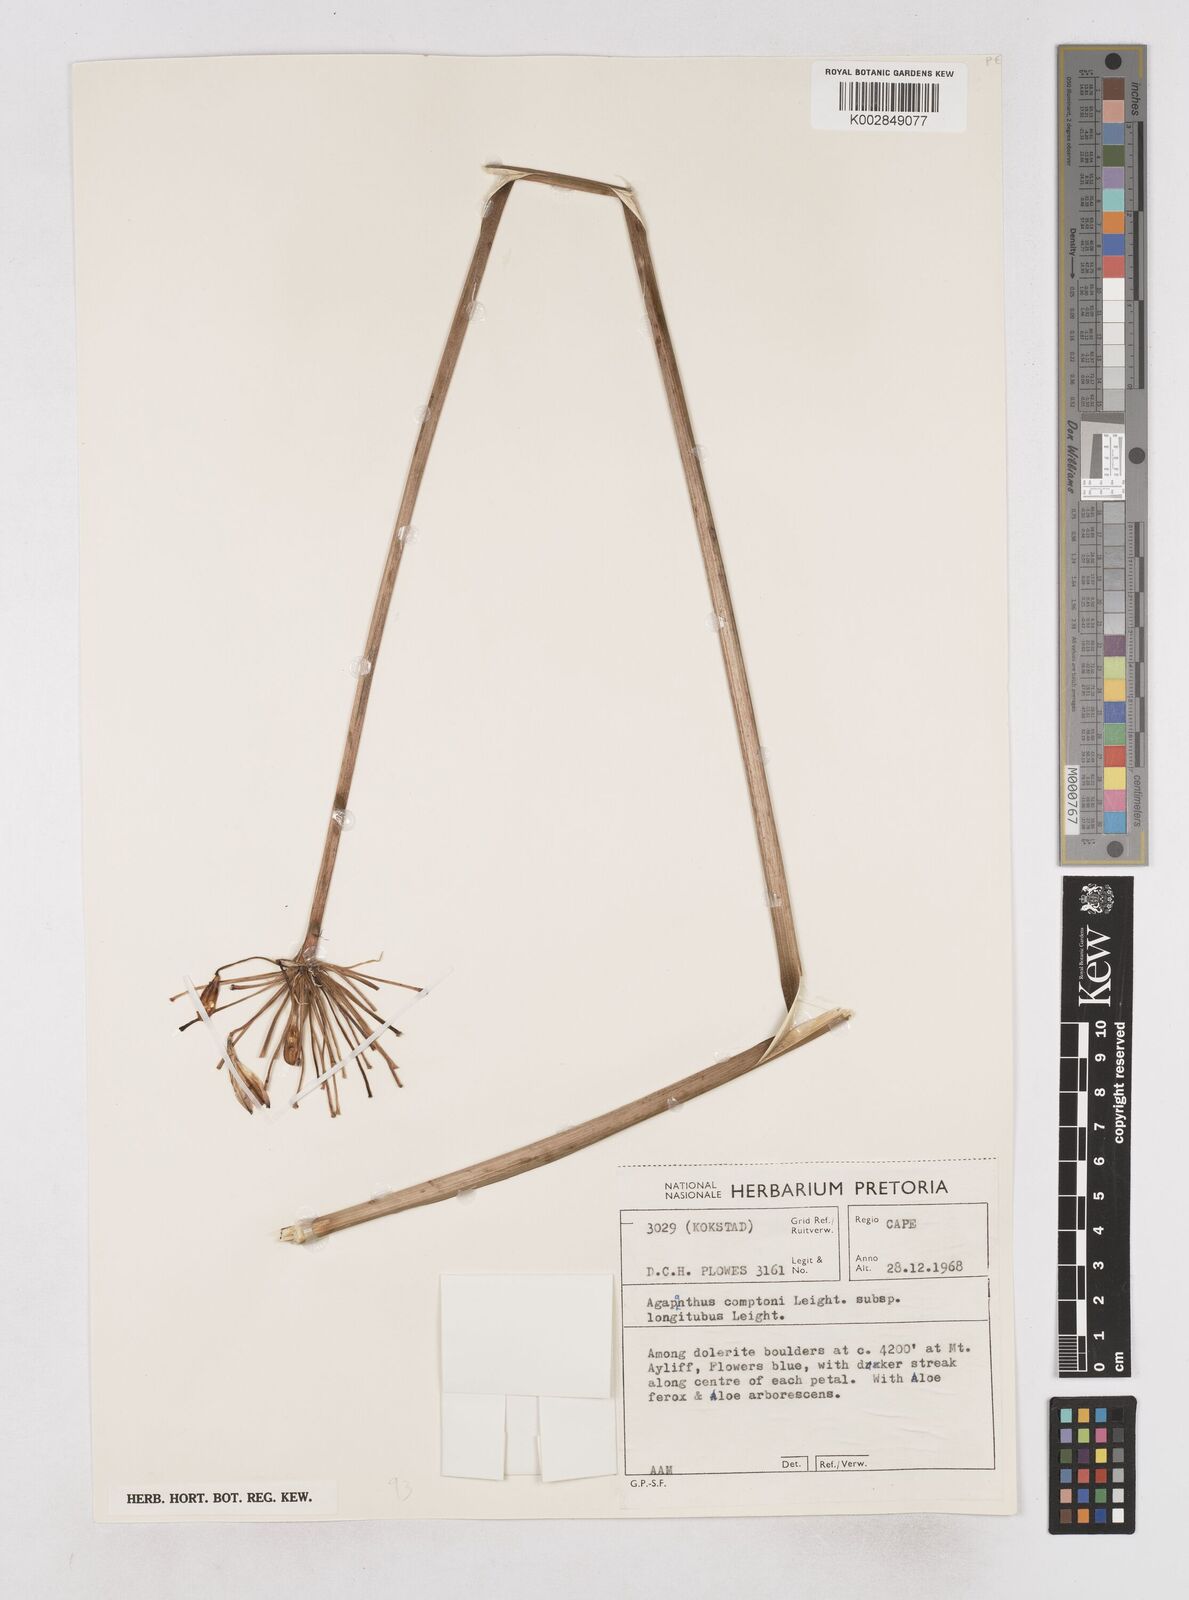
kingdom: Plantae
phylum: Tracheophyta
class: Liliopsida
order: Asparagales
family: Amaryllidaceae
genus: Agapanthus
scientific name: Agapanthus praecox
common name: African-lily
